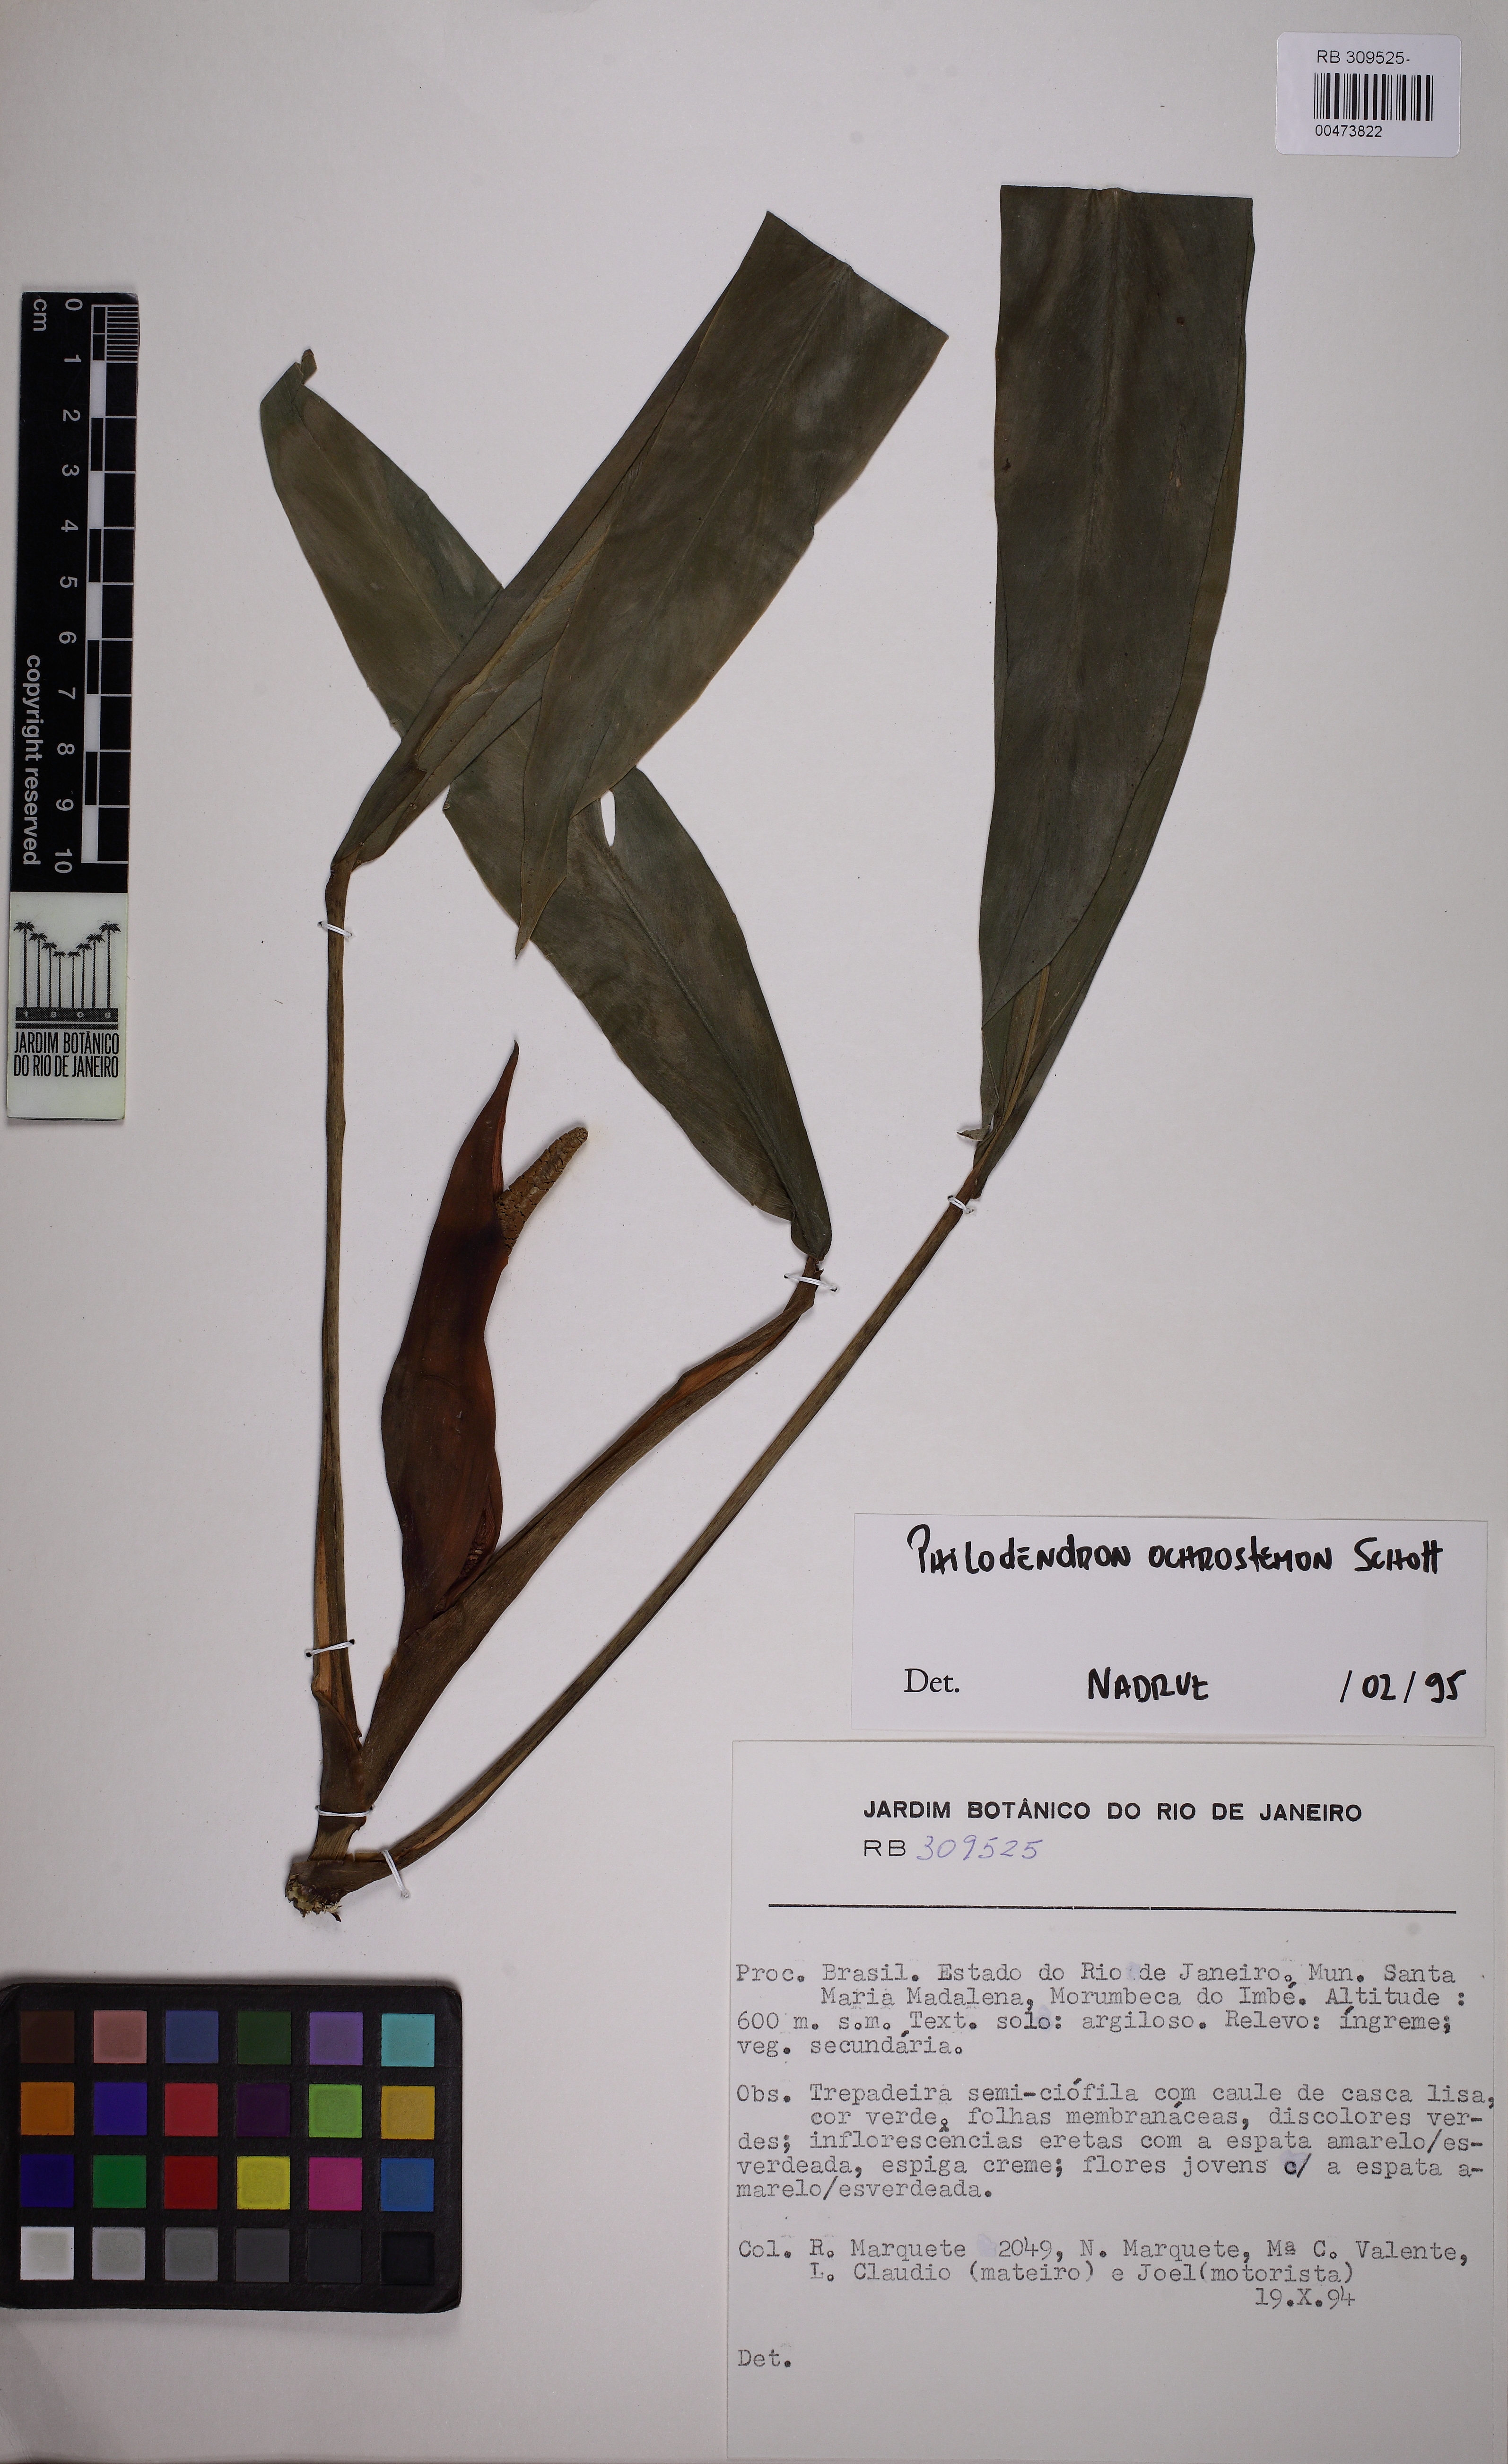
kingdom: Plantae
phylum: Tracheophyta
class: Liliopsida
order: Alismatales
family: Araceae
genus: Philodendron
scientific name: Philodendron oblongum
